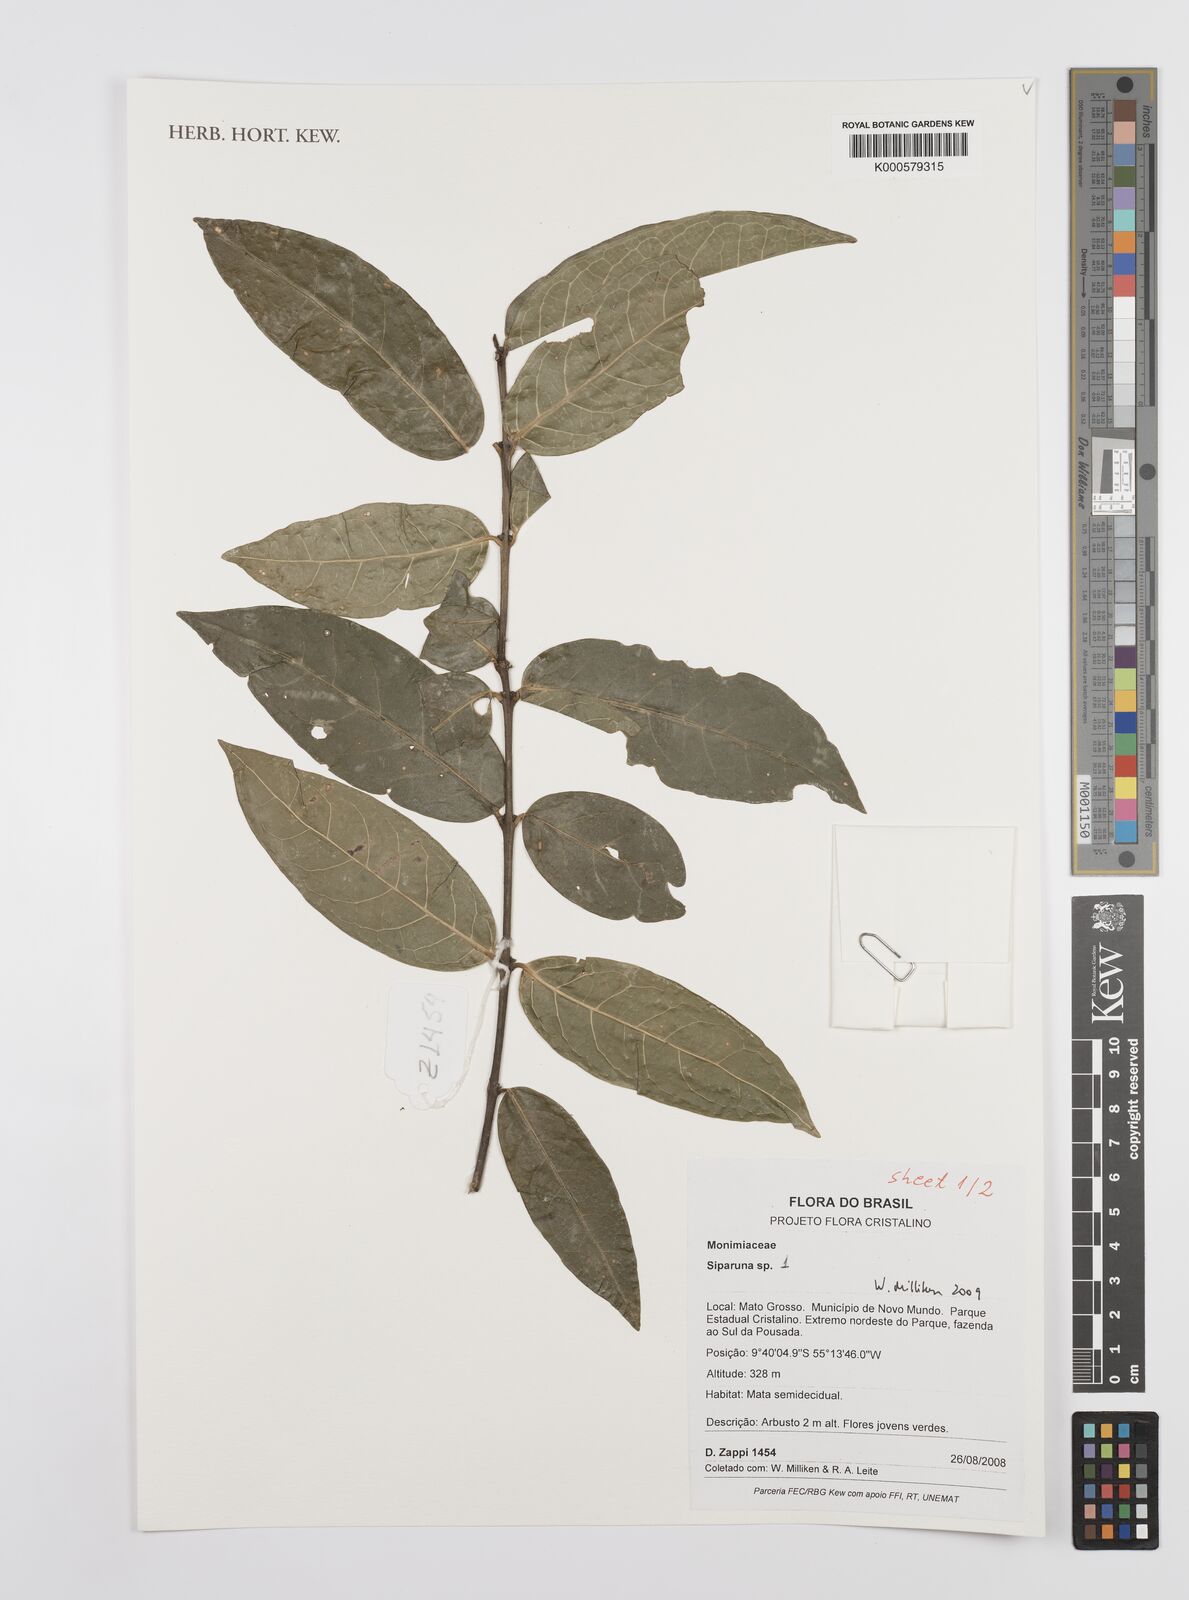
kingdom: Plantae
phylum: Tracheophyta
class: Magnoliopsida
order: Laurales
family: Siparunaceae
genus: Siparuna
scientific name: Siparuna
